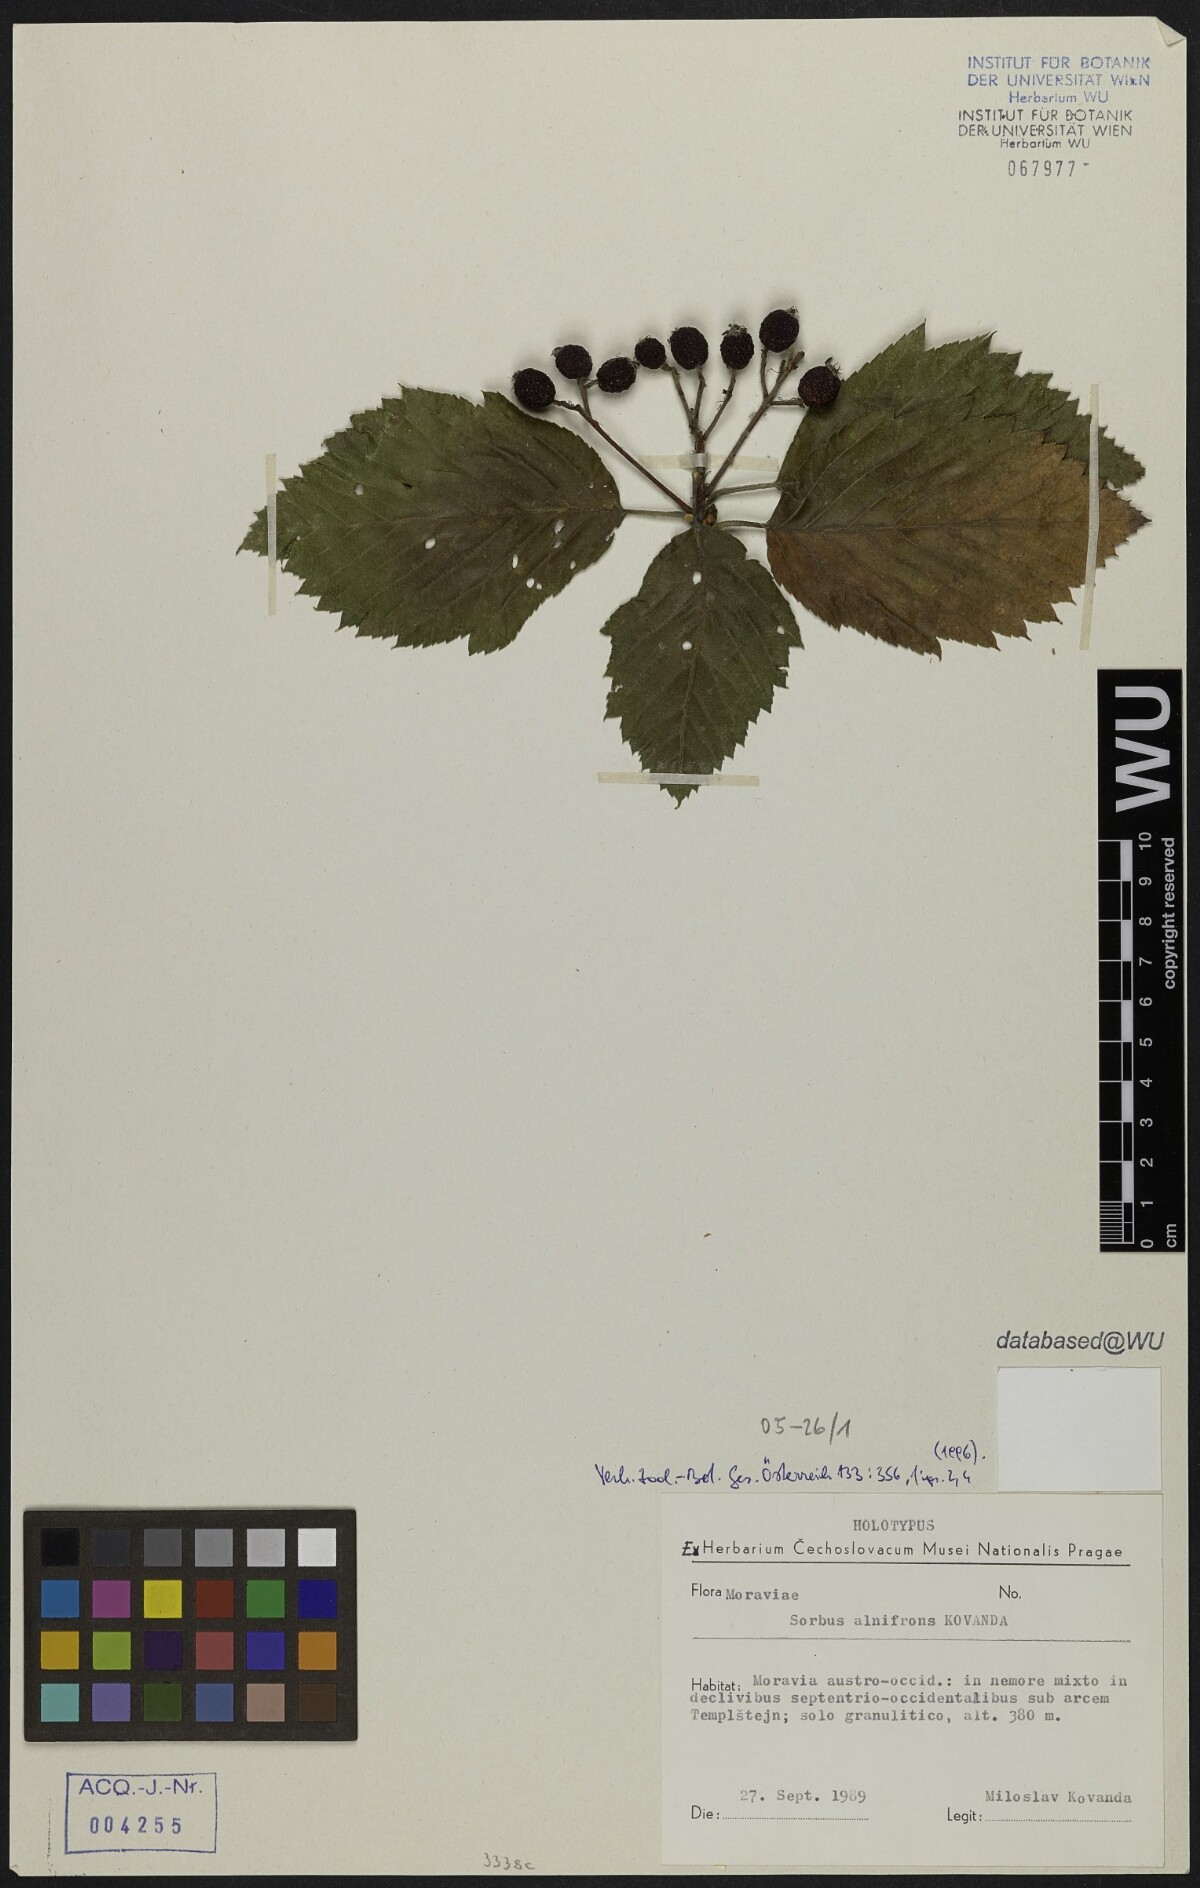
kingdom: Plantae
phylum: Tracheophyta
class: Magnoliopsida
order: Rosales
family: Rosaceae
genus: Karpatiosorbus
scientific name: Karpatiosorbus alnifrons
